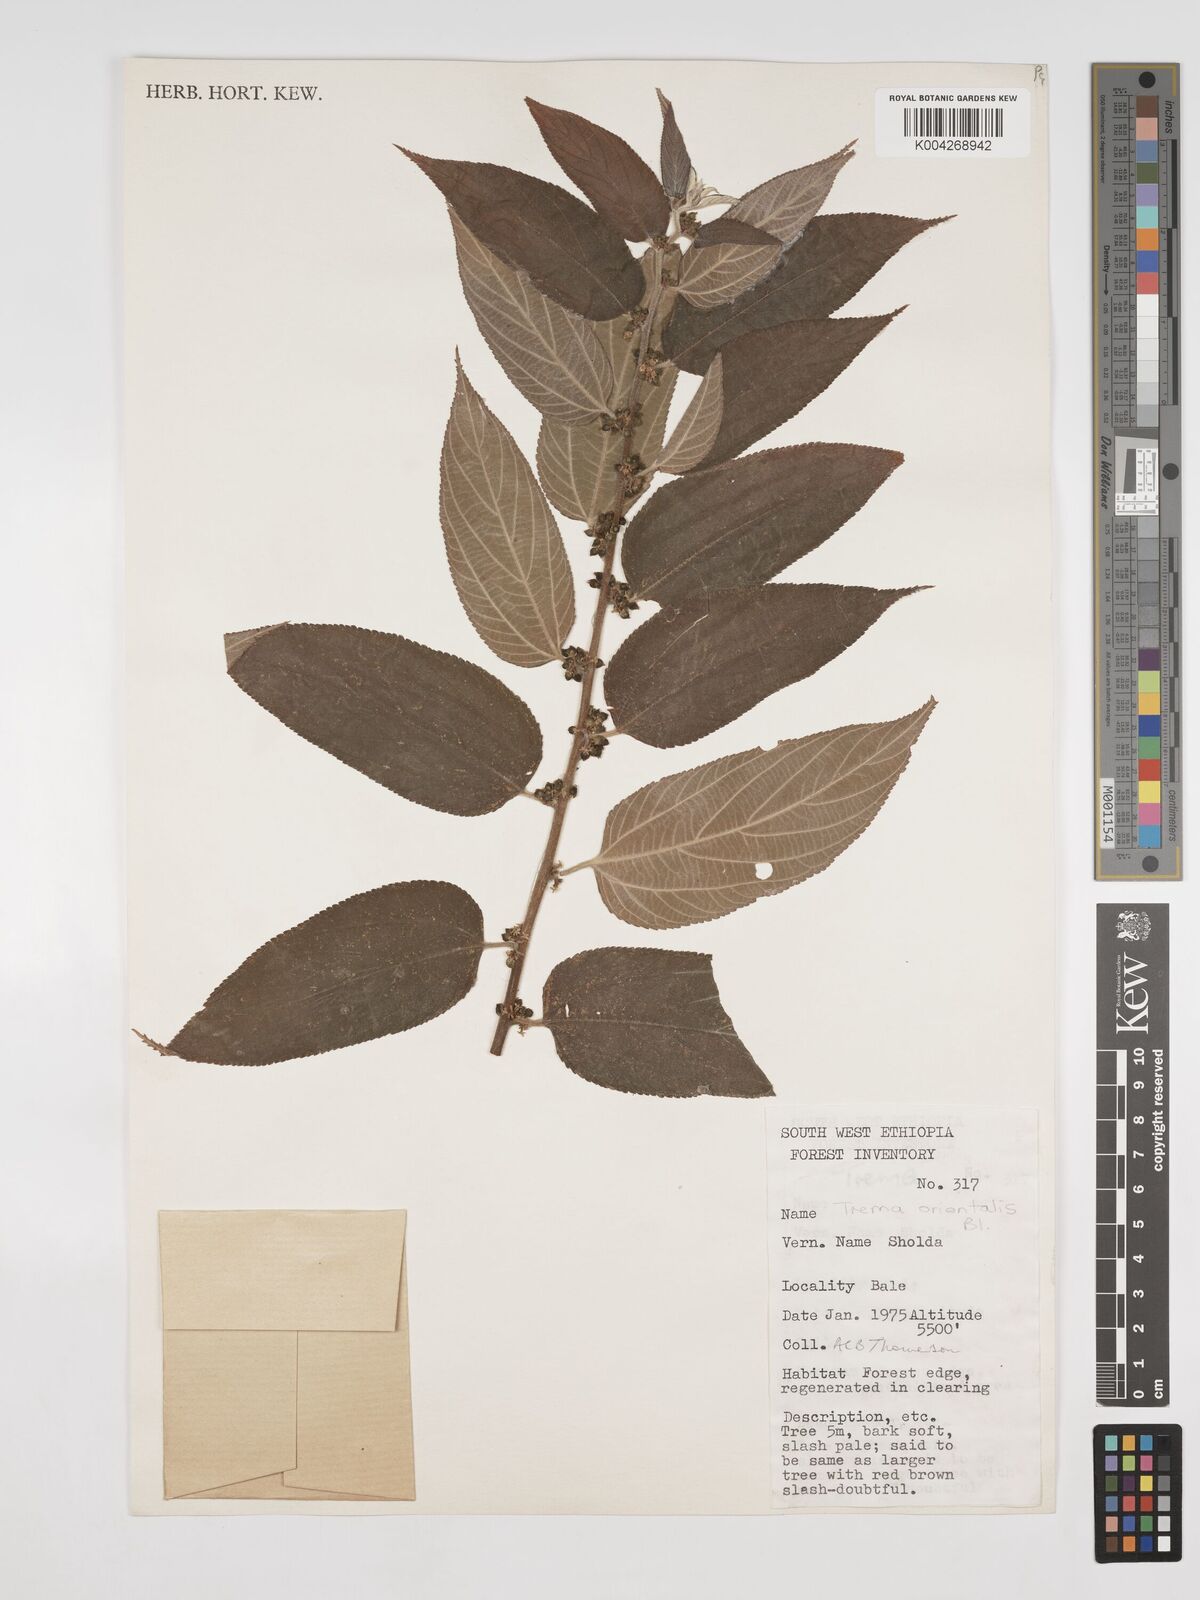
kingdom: Plantae
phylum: Tracheophyta
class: Magnoliopsida
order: Rosales
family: Cannabaceae
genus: Trema
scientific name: Trema orientale
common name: Indian charcoal tree
